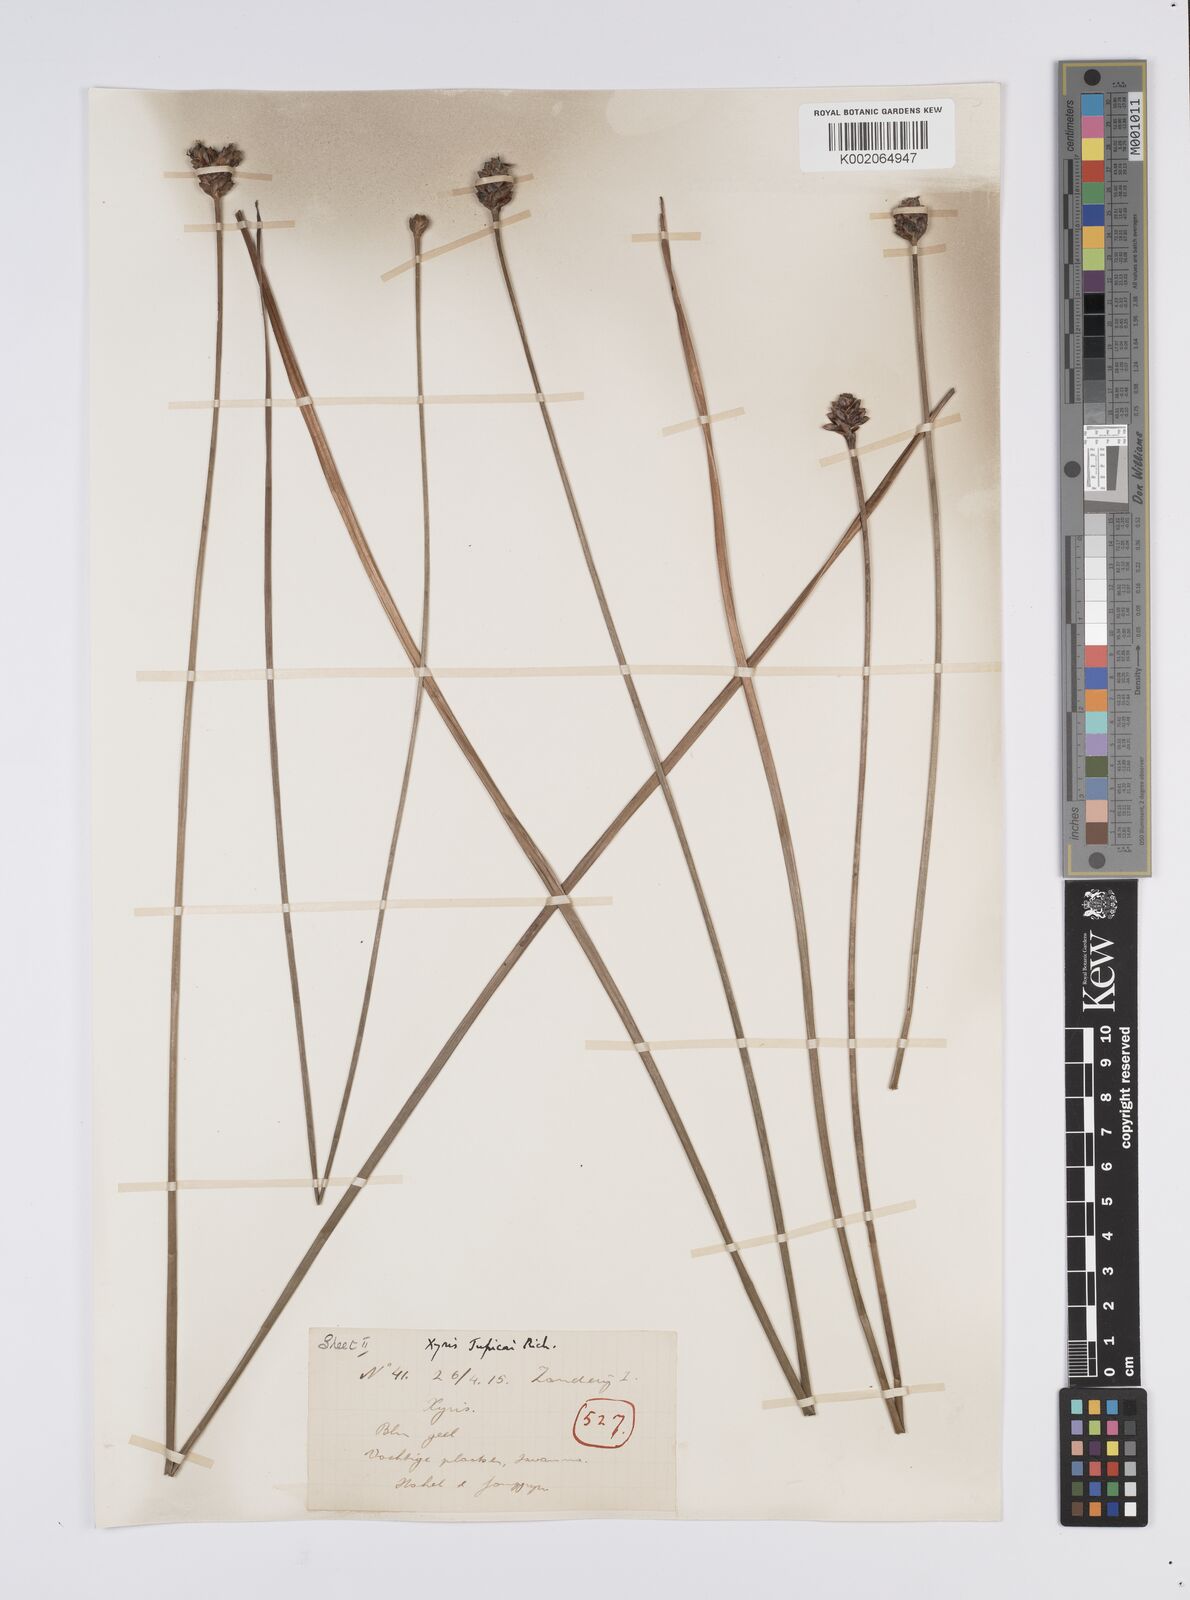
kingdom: Plantae
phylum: Tracheophyta
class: Liliopsida
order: Poales
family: Xyridaceae
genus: Xyris
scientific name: Xyris jupicai
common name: Richard's yelloweyed grass
